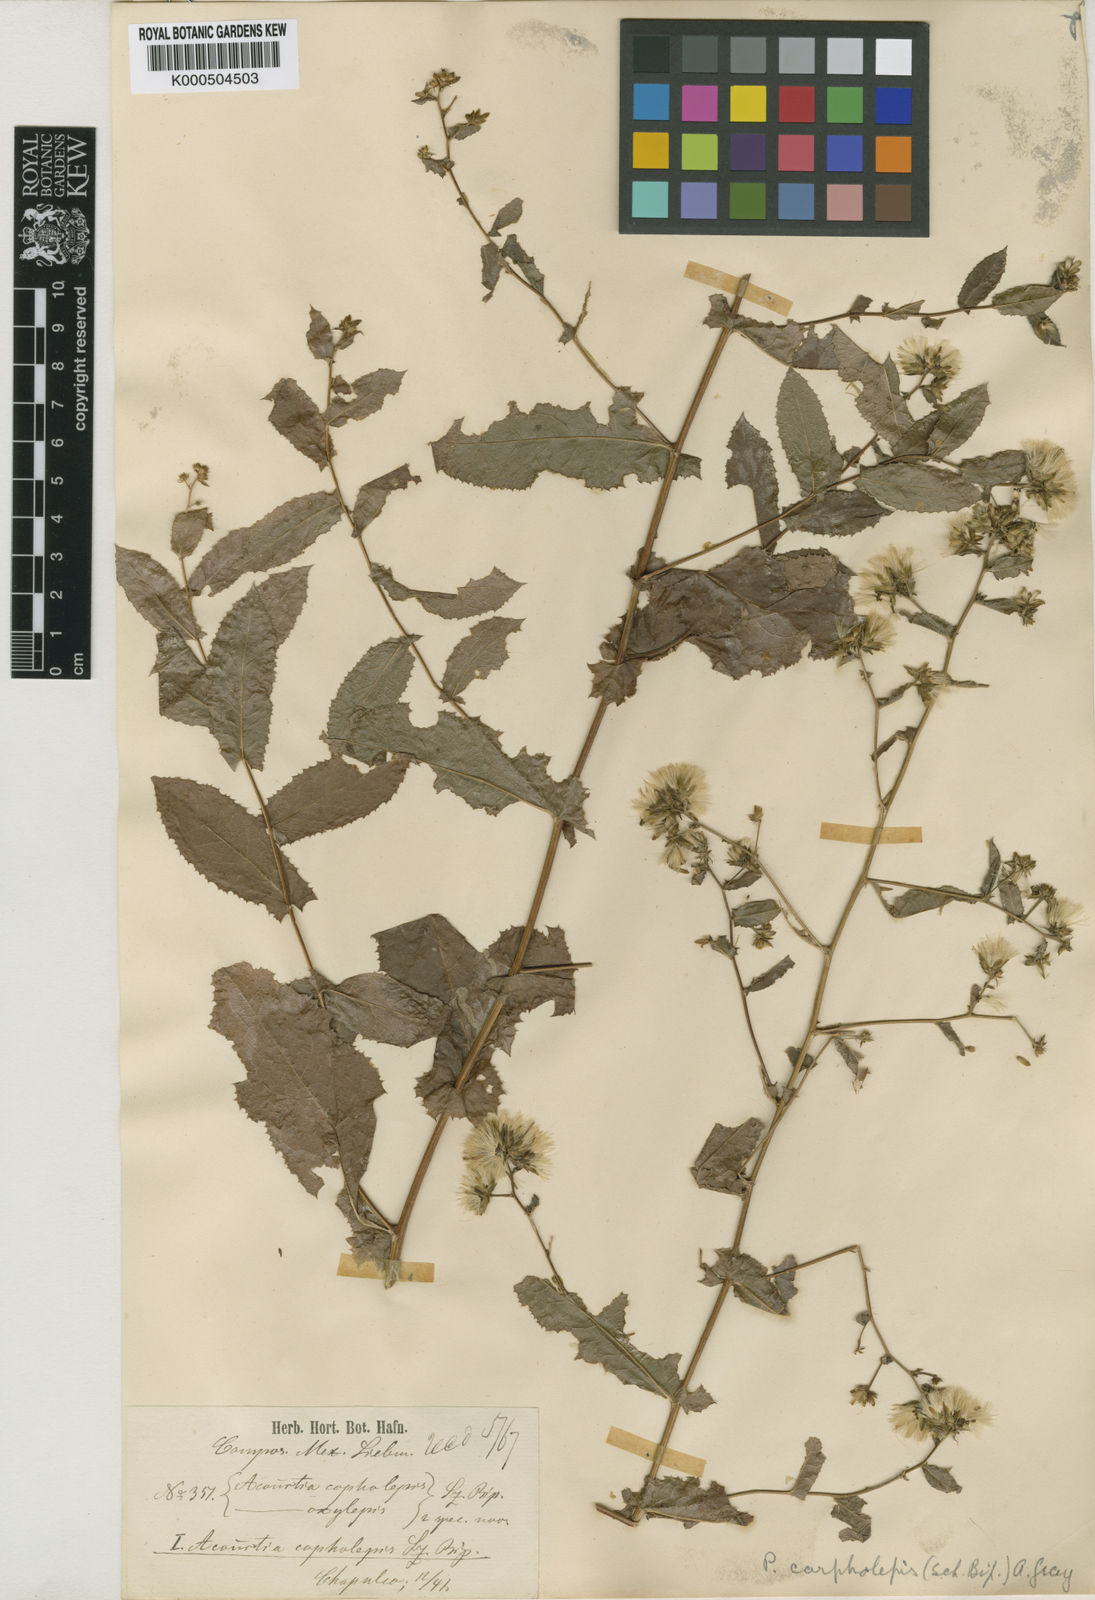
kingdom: Plantae
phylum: Tracheophyta
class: Magnoliopsida
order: Asterales
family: Asteraceae
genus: Acourtia
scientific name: Acourtia carpholepis
